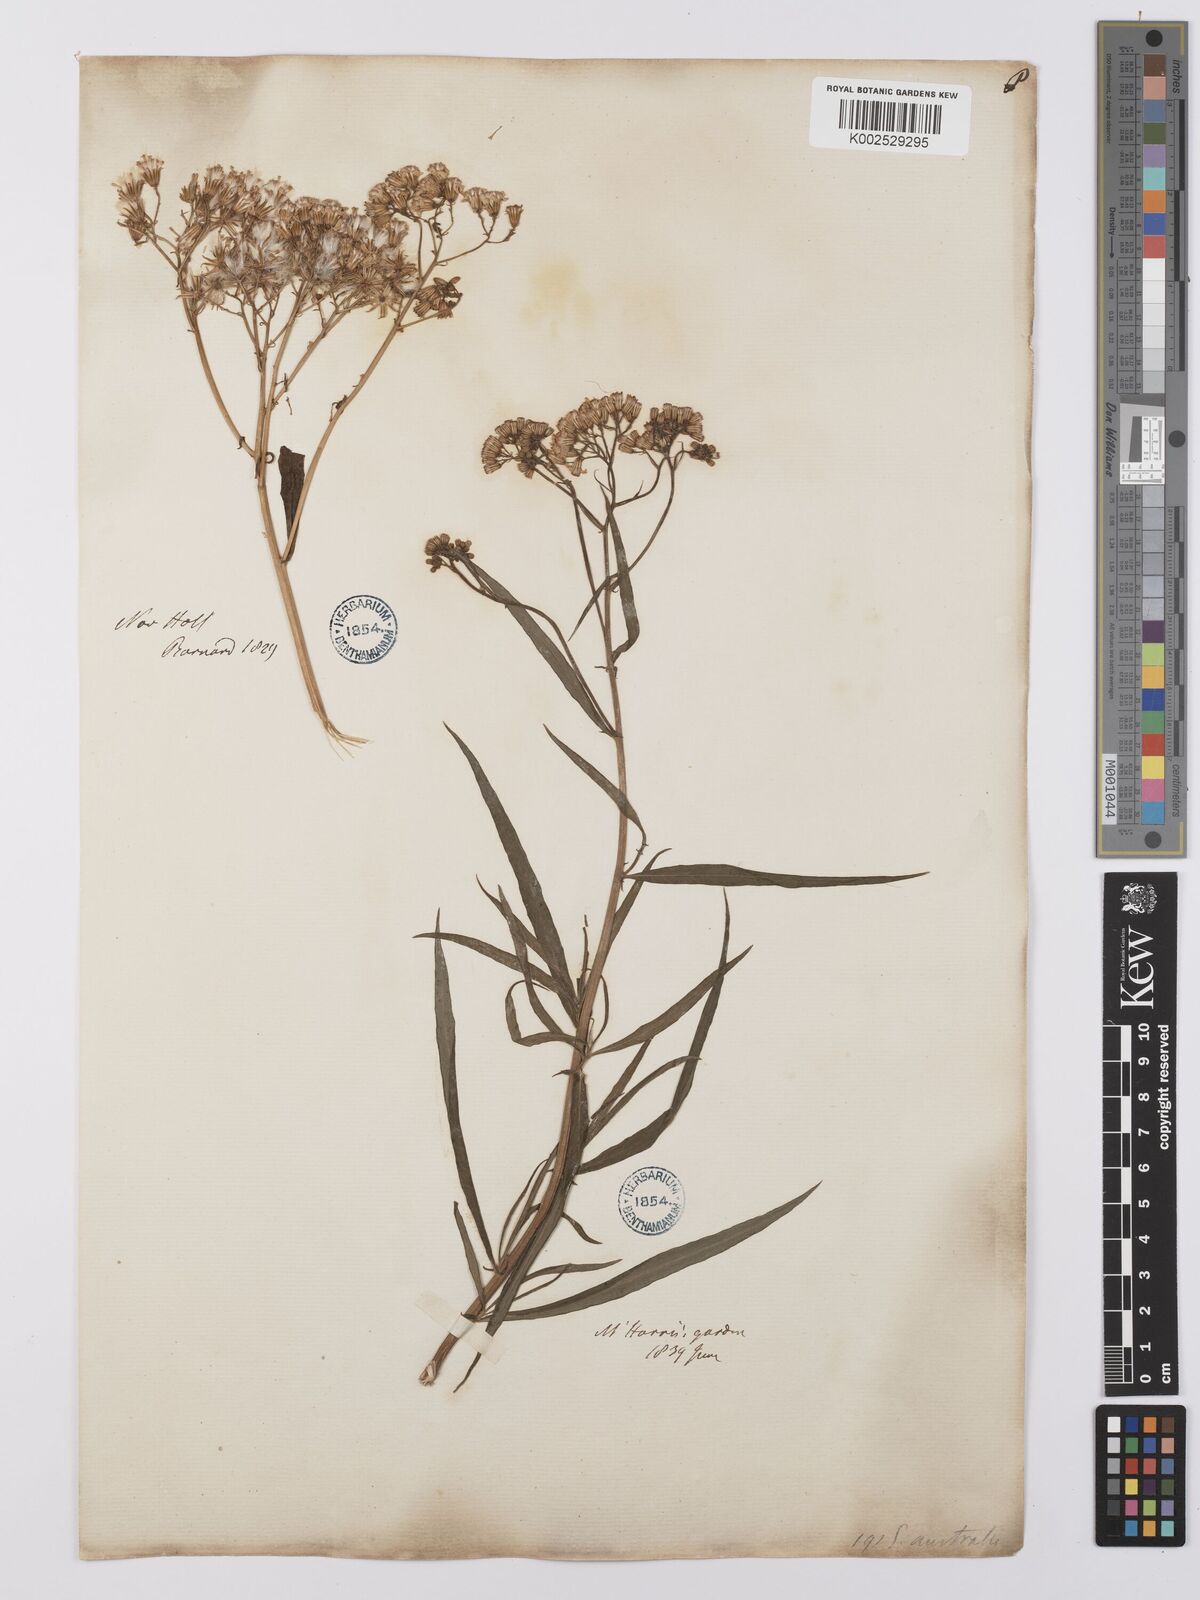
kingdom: Plantae
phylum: Tracheophyta
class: Magnoliopsida
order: Asterales
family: Asteraceae
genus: Senecio
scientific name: Senecio
